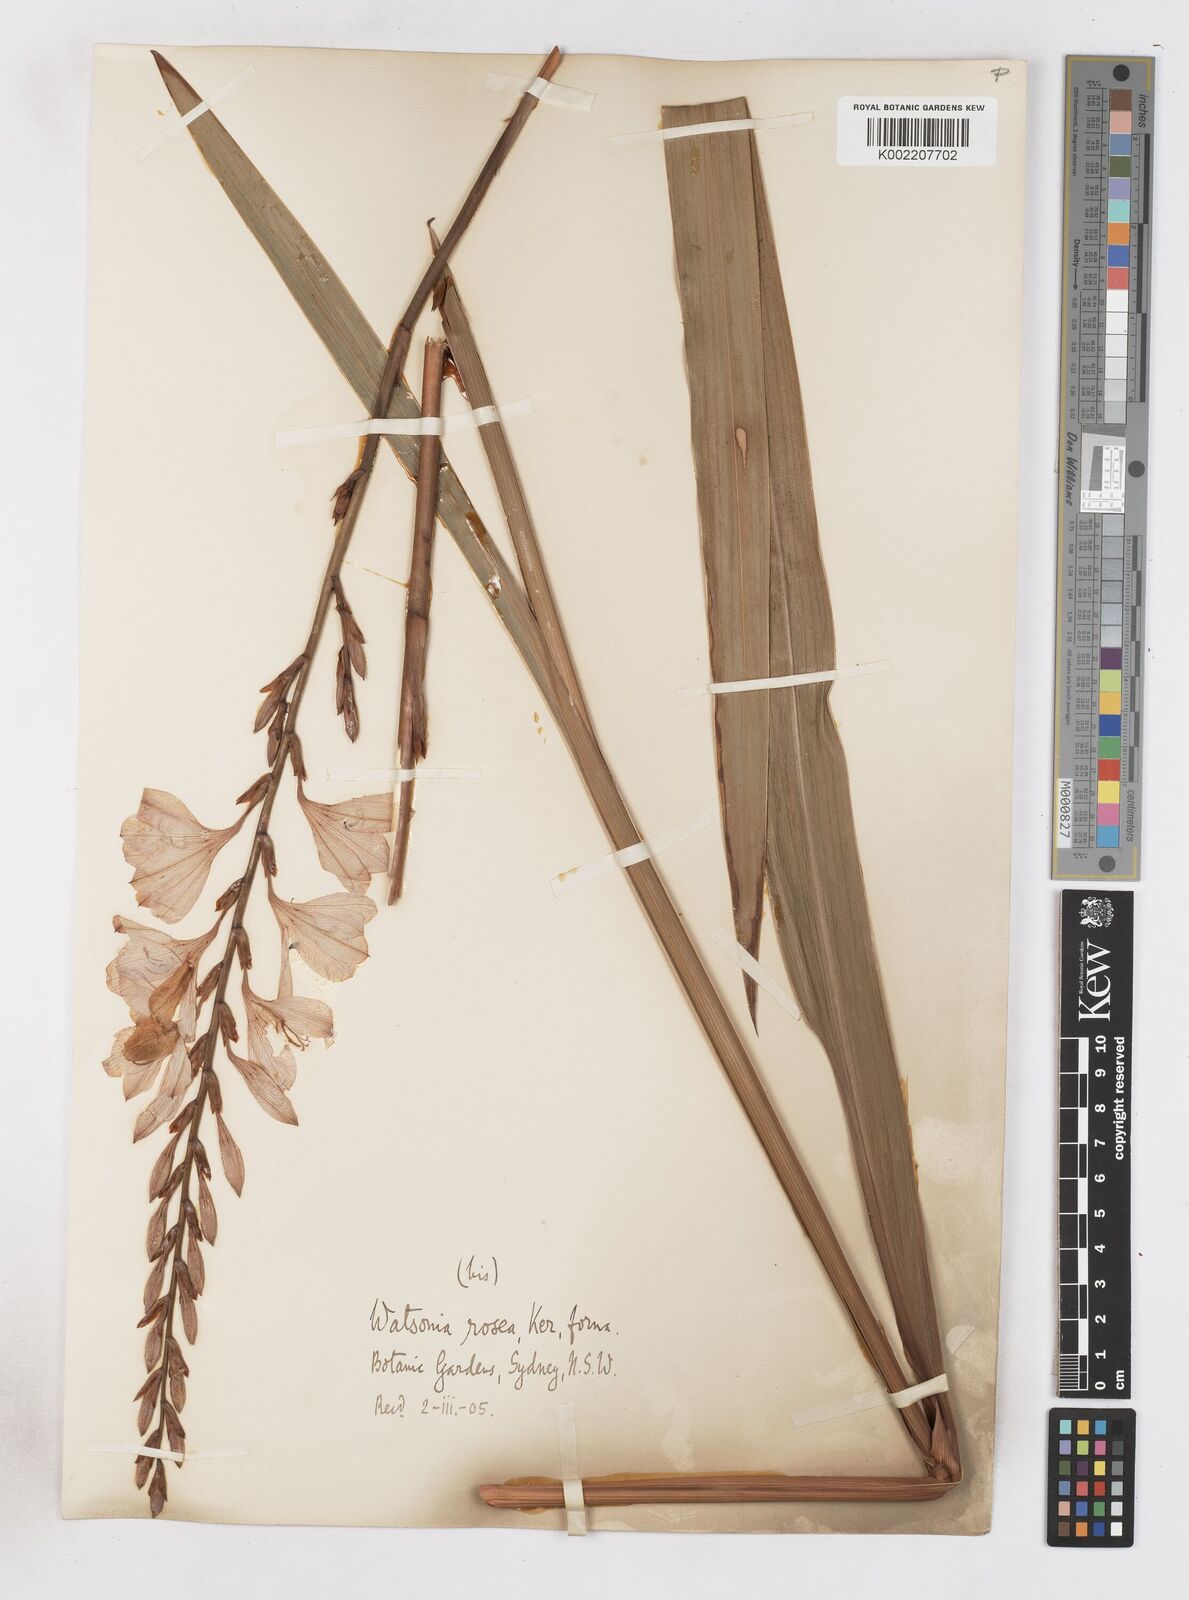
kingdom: Plantae
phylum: Tracheophyta
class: Liliopsida
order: Asparagales
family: Iridaceae
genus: Watsonia
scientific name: Watsonia borbonica
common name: Bugle-lily
